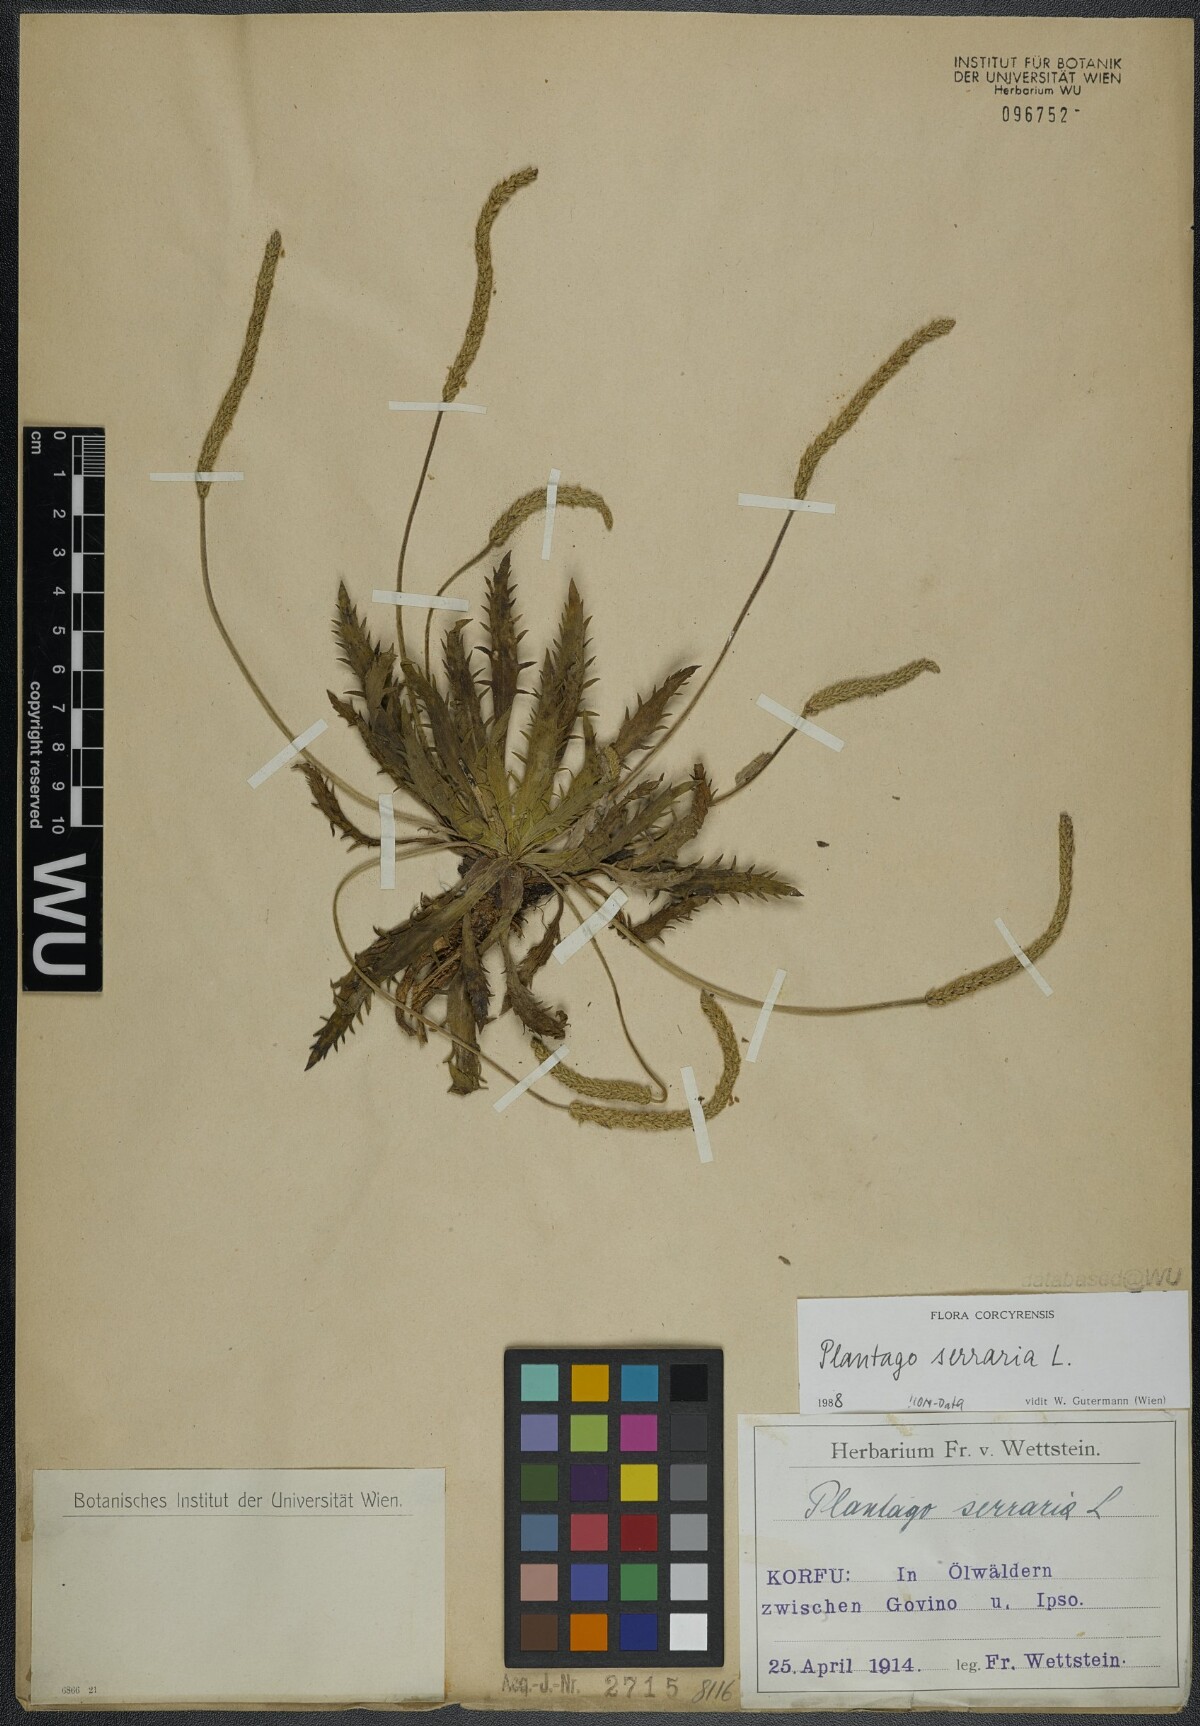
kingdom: Plantae
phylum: Tracheophyta
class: Magnoliopsida
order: Lamiales
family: Plantaginaceae
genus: Plantago
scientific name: Plantago serraria
